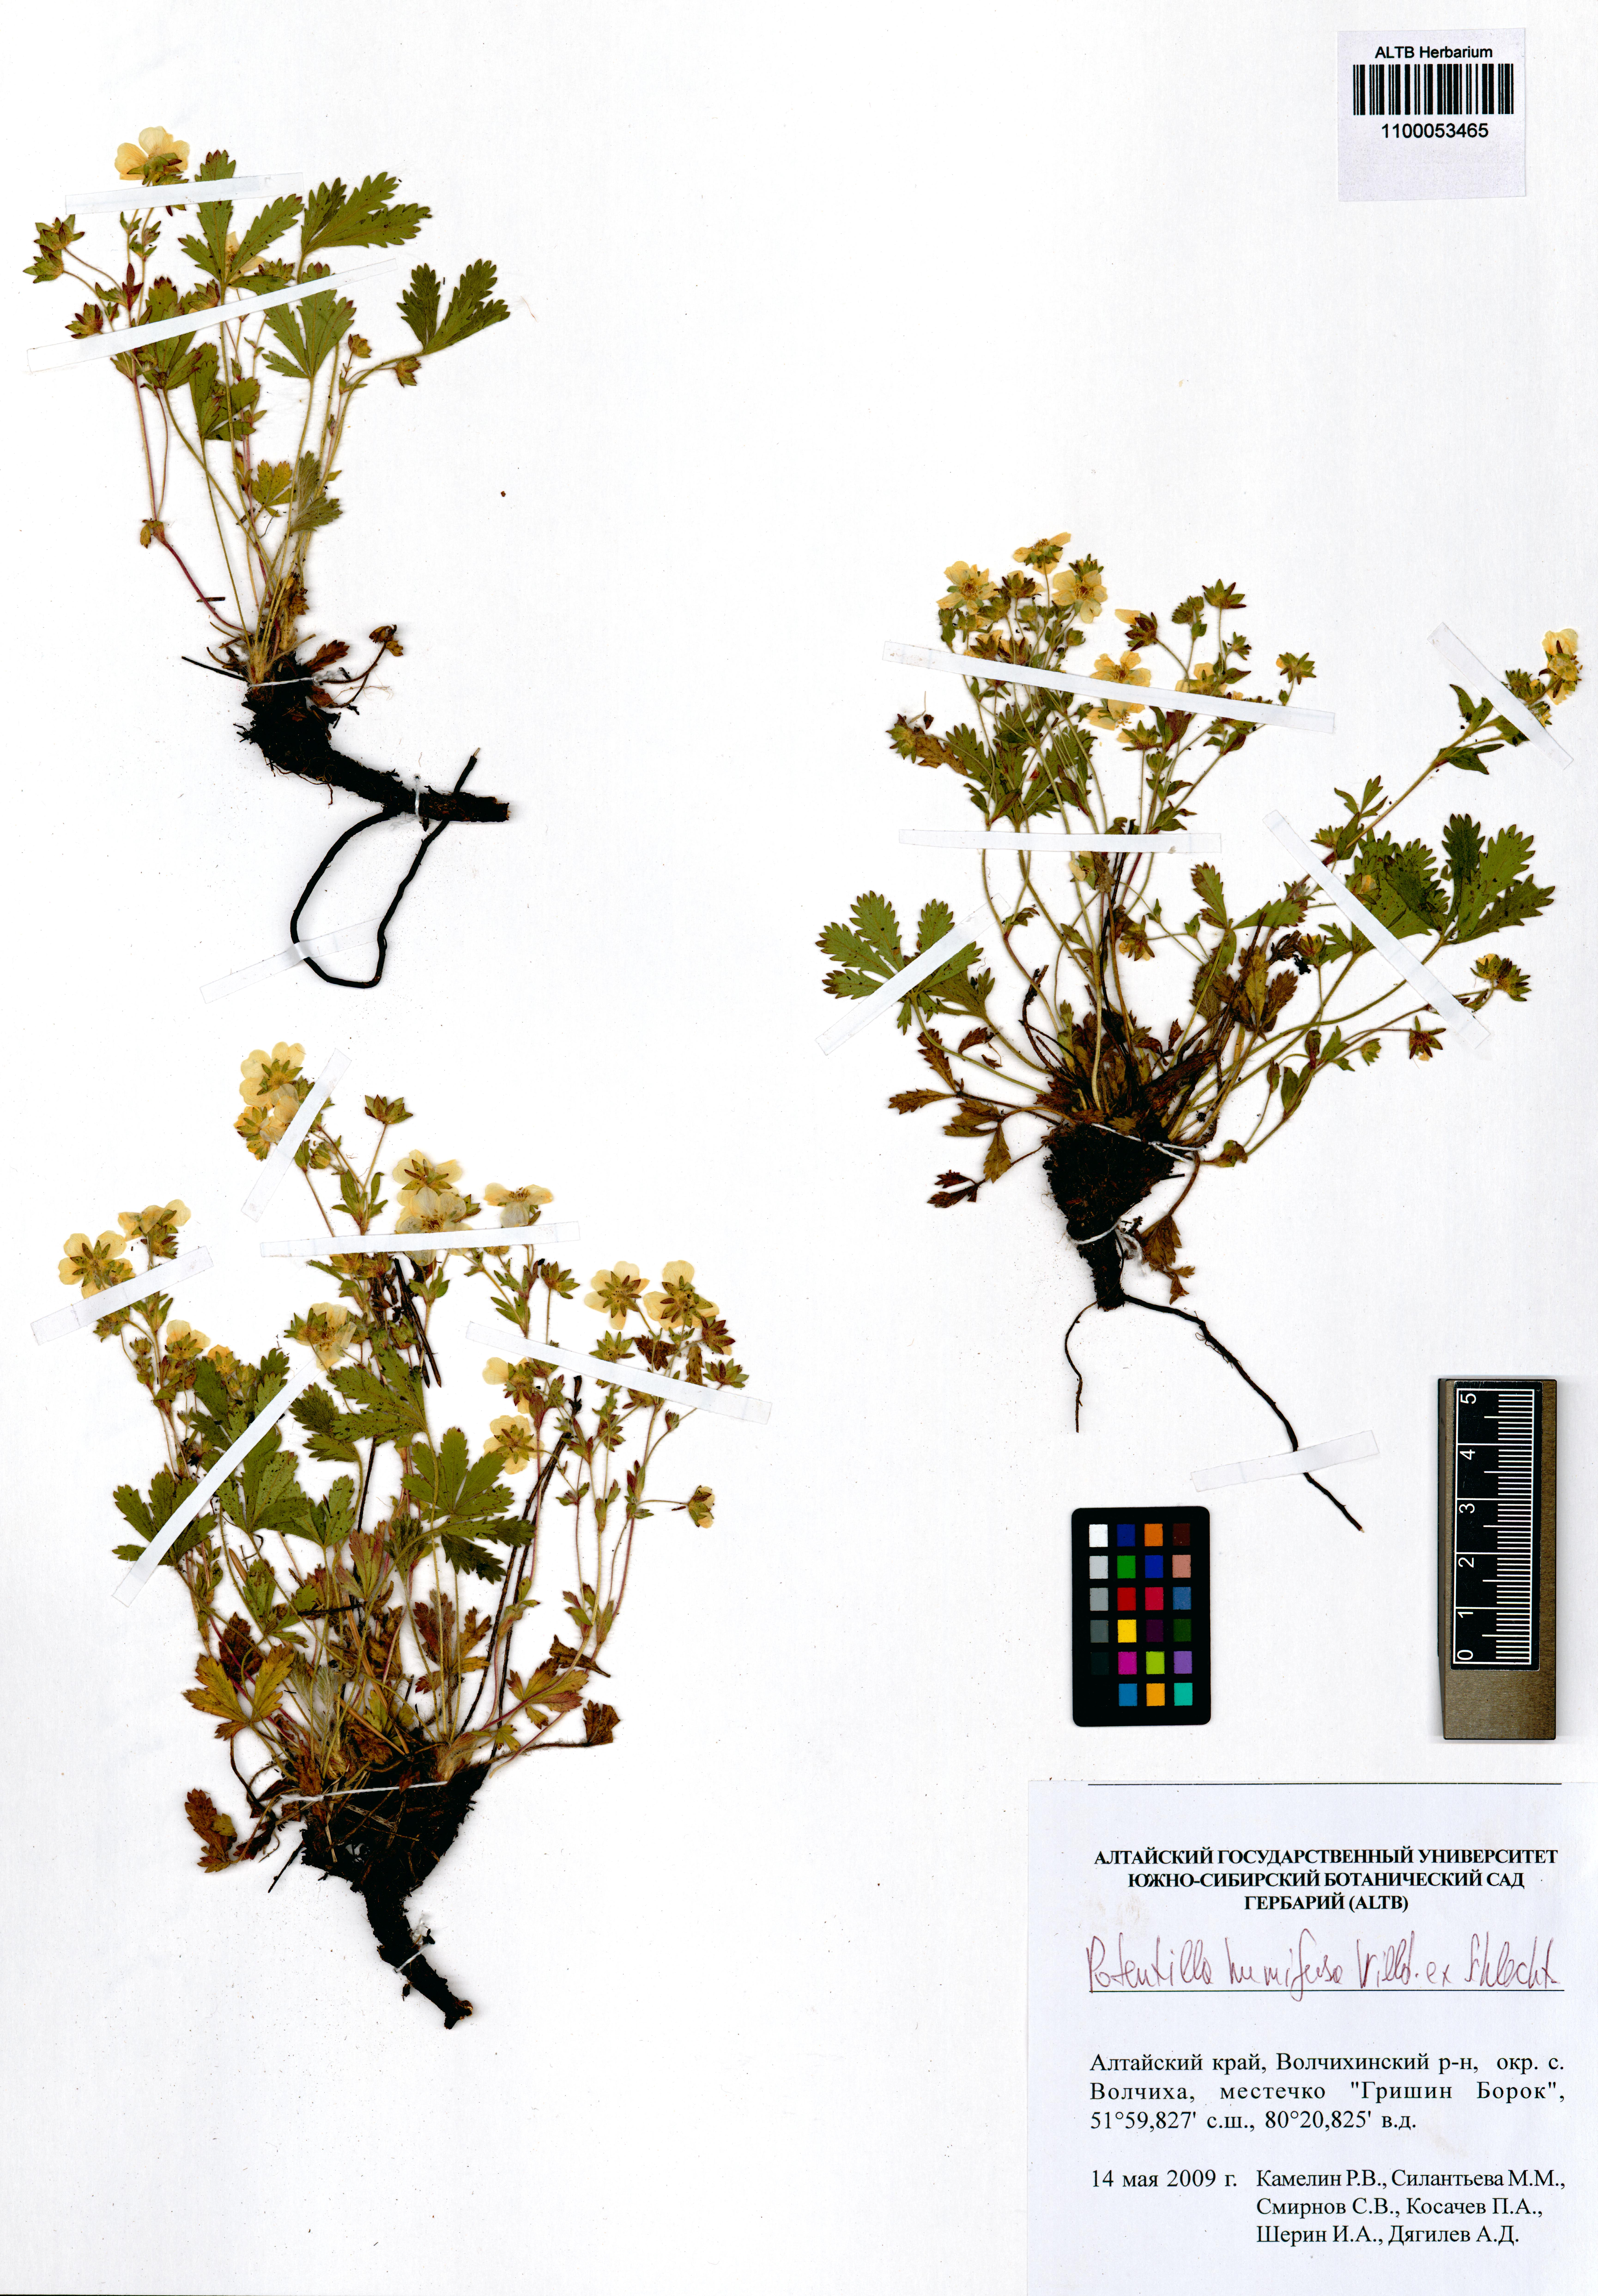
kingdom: Plantae
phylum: Tracheophyta
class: Magnoliopsida
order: Rosales
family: Rosaceae
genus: Potentilla
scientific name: Potentilla humifusa
